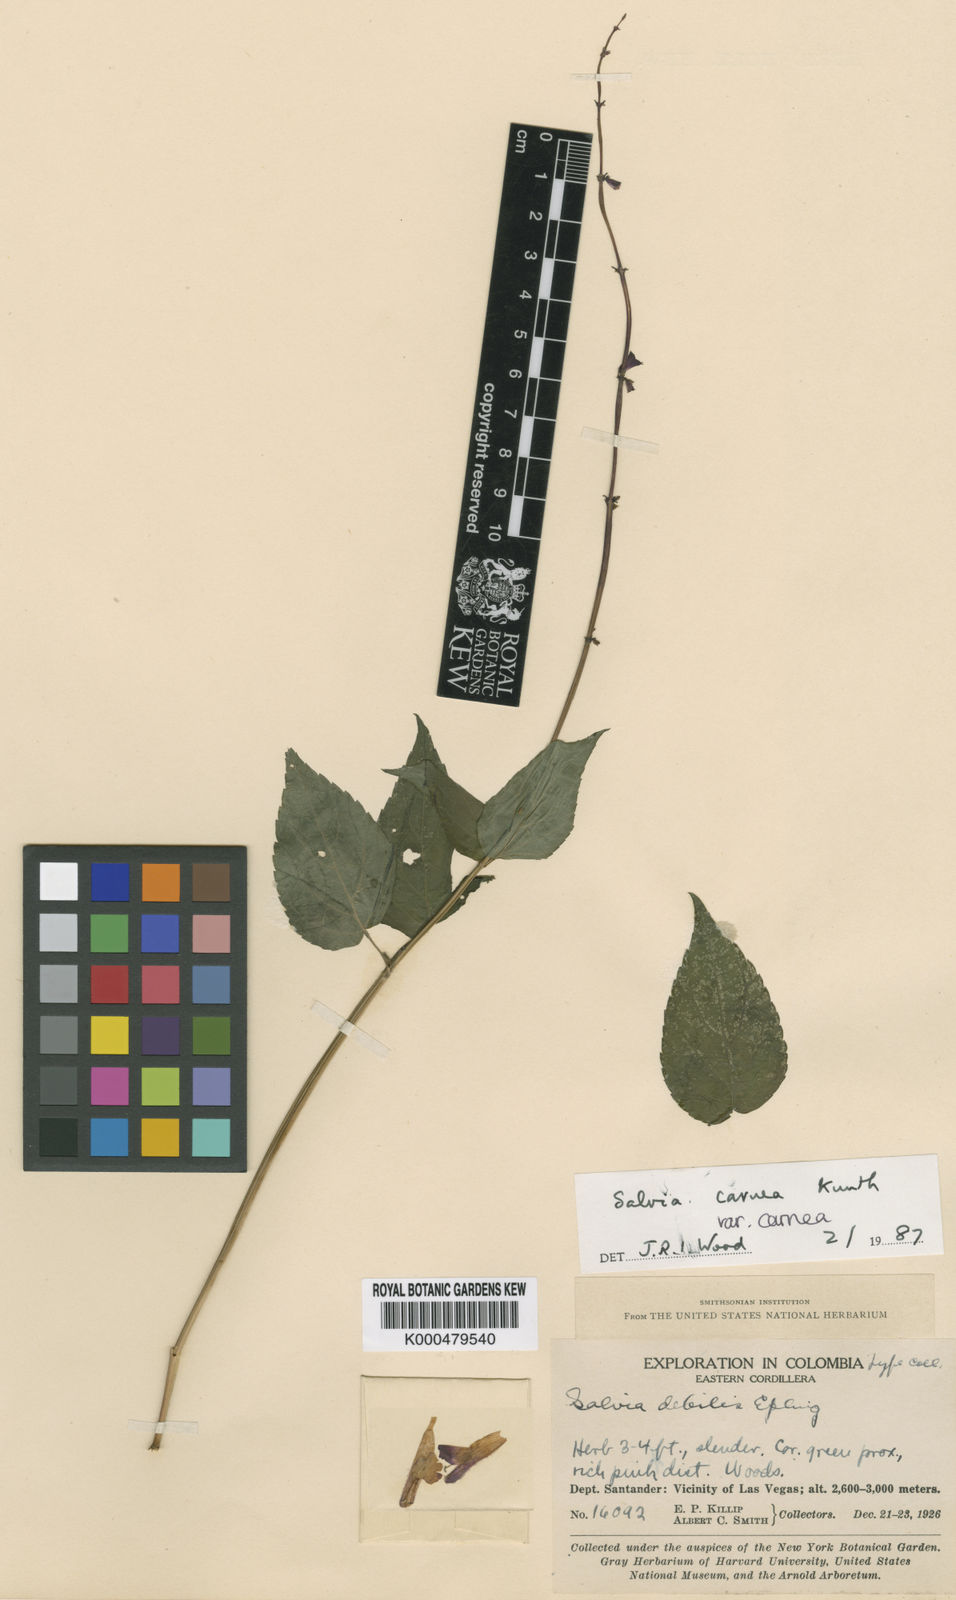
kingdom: Plantae
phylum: Tracheophyta
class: Magnoliopsida
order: Lamiales
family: Lamiaceae
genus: Salvia
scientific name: Salvia carnea
